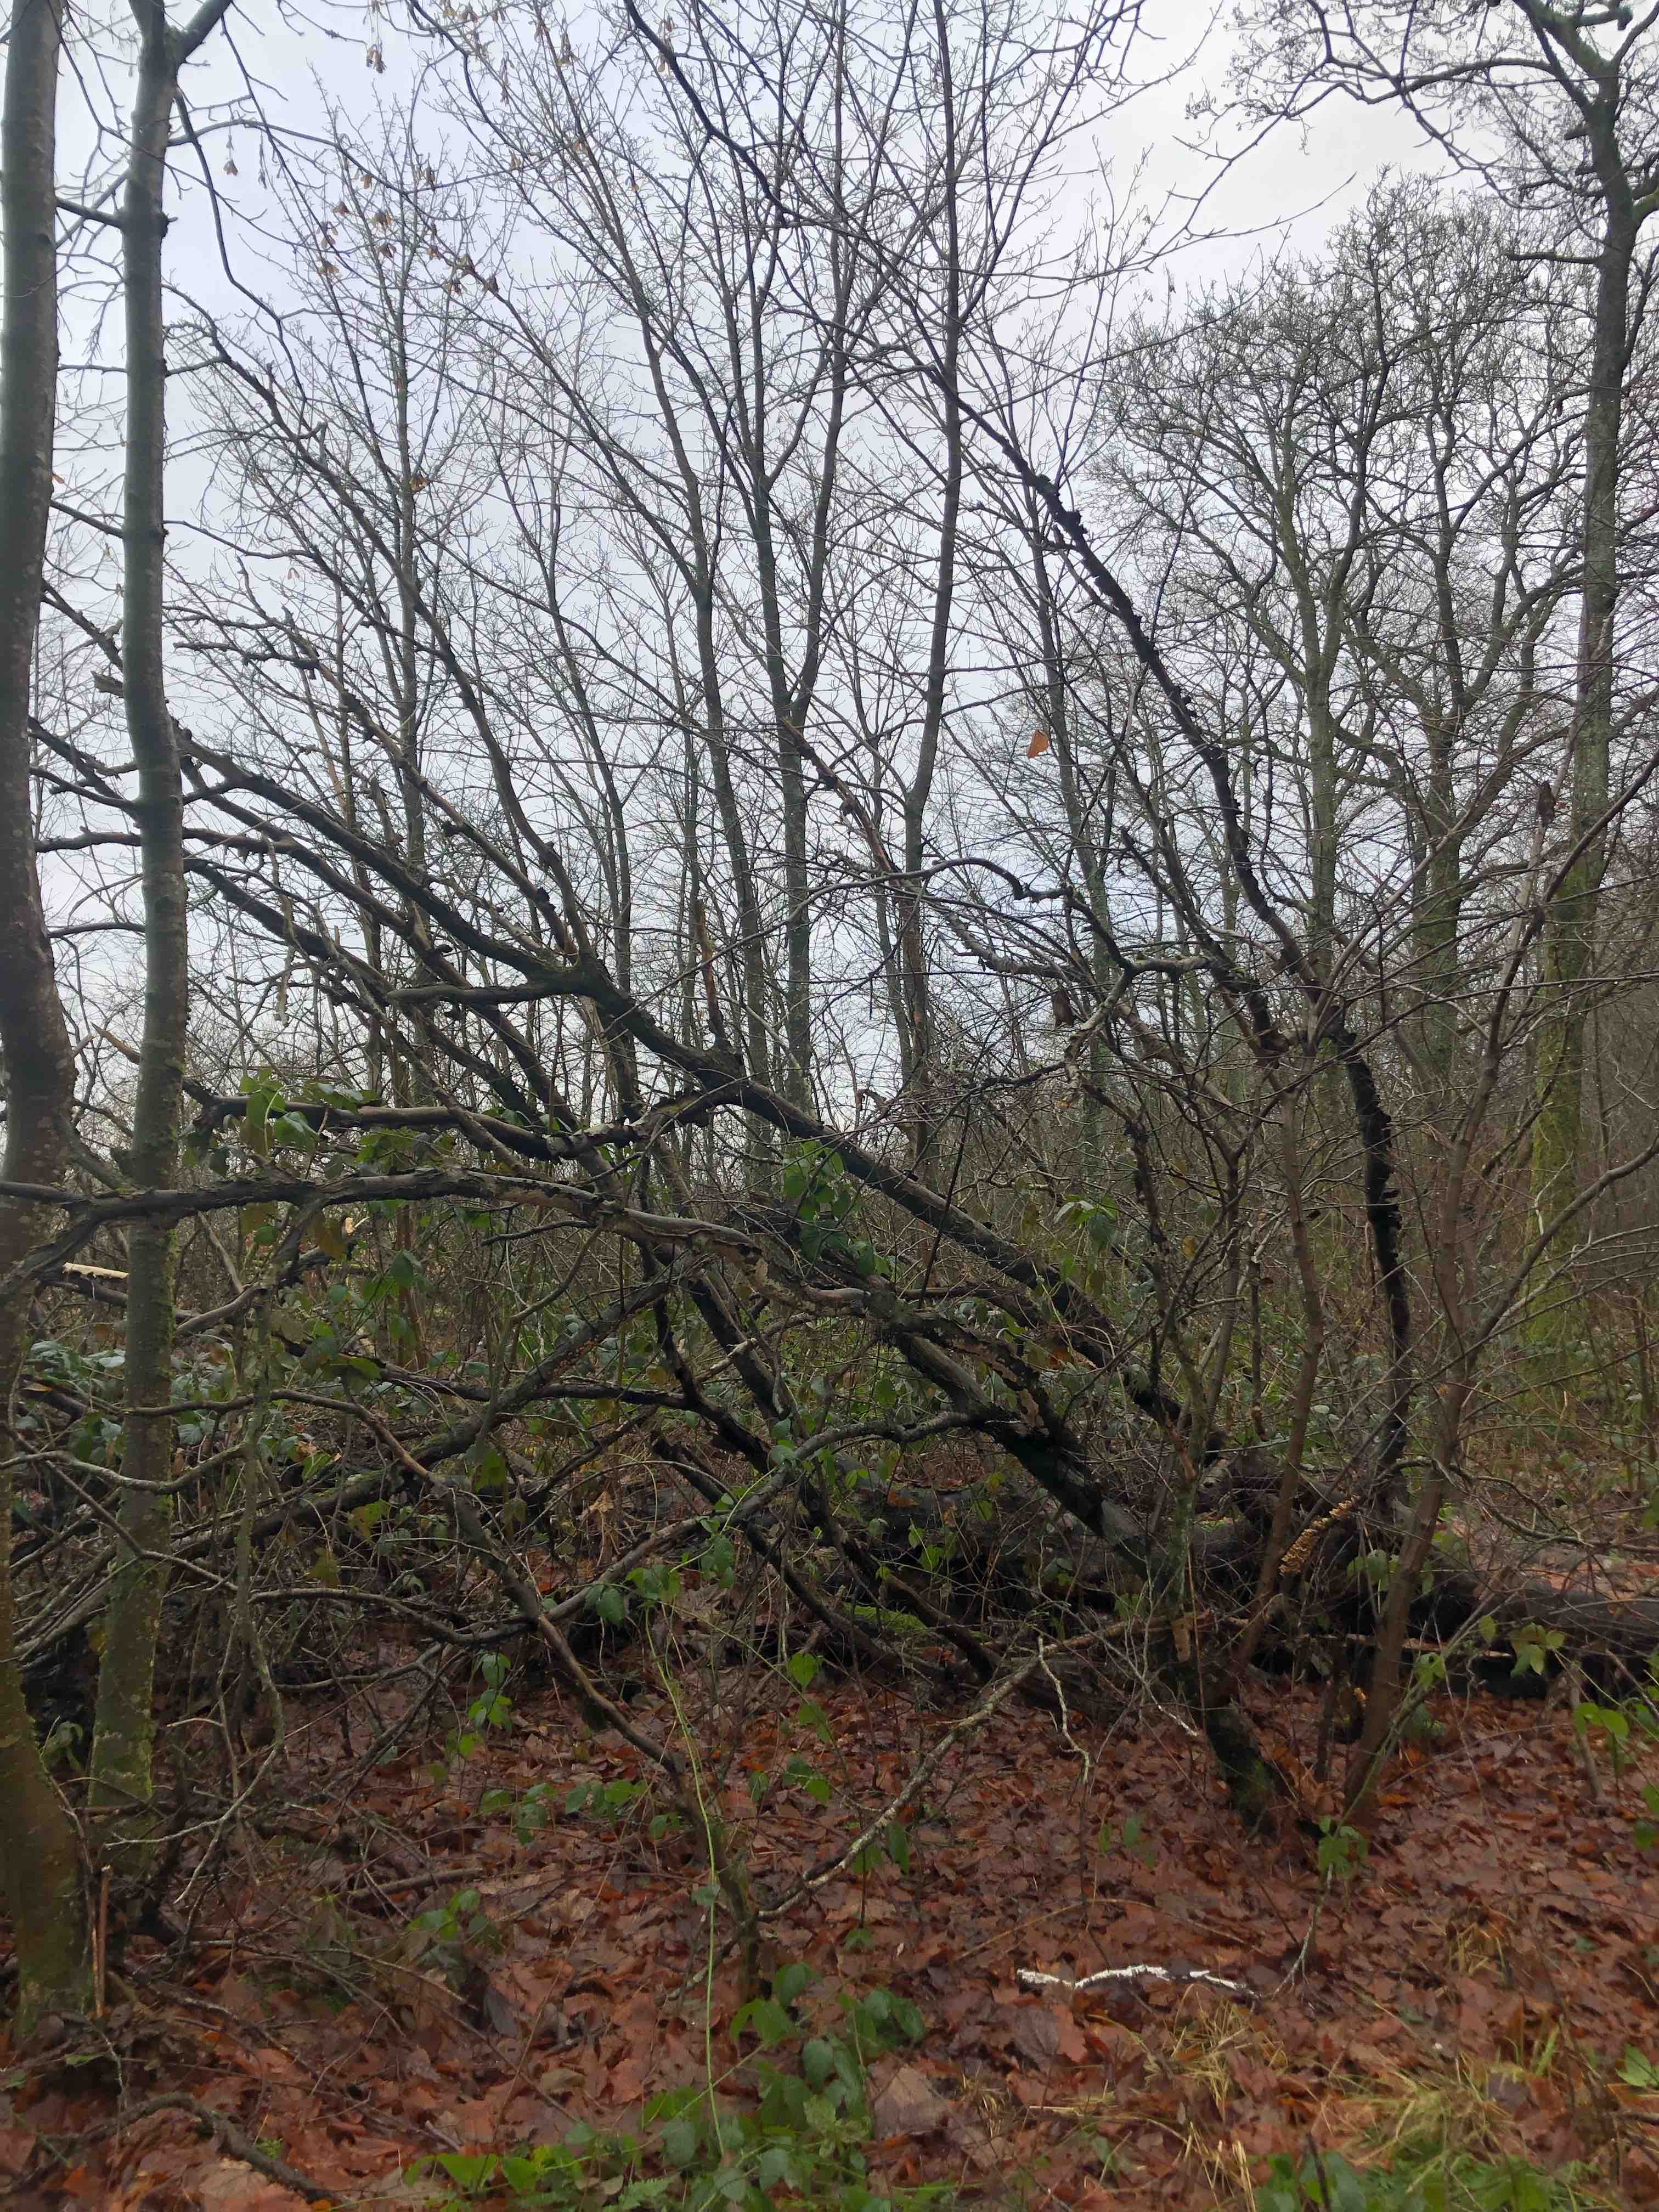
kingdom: Fungi
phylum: Basidiomycota
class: Agaricomycetes
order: Polyporales
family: Polyporaceae
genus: Podofomes
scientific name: Podofomes mollis
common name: blød begporesvamp
